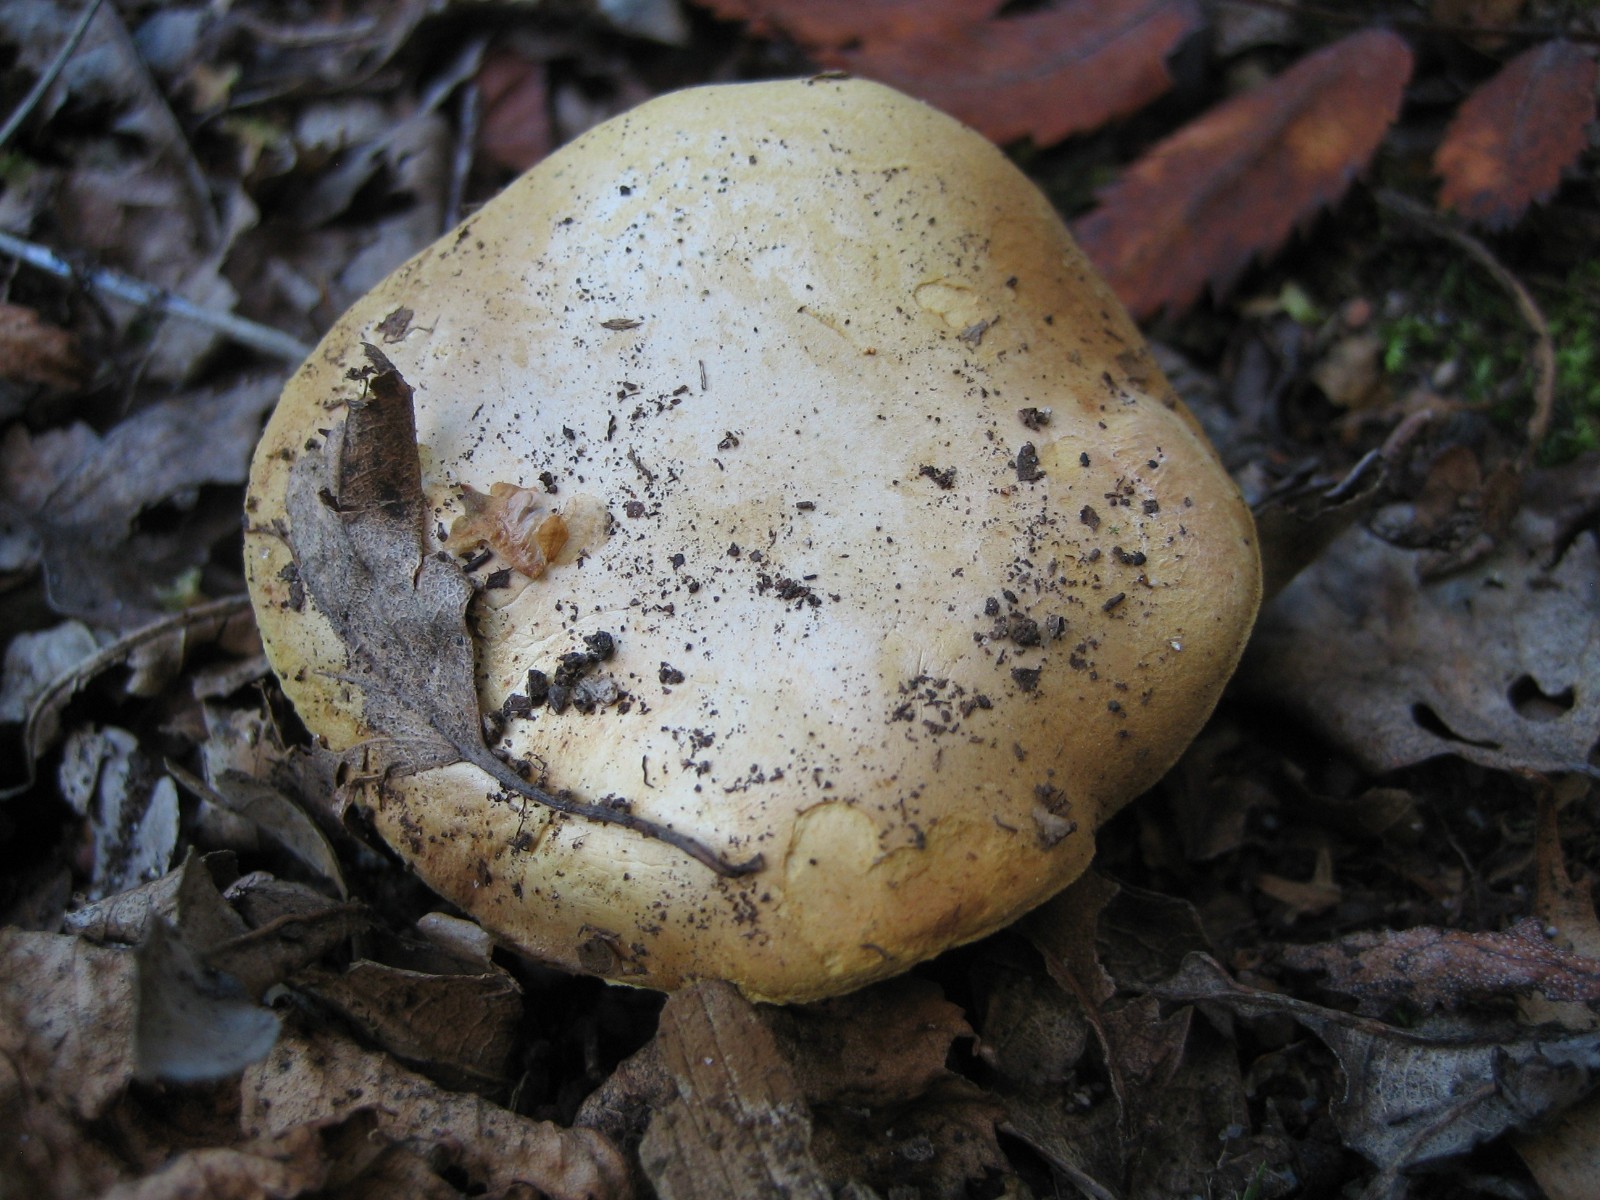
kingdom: Fungi
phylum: Basidiomycota
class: Agaricomycetes
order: Boletales
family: Boletaceae
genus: Chalciporus
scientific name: Chalciporus piperatus
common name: peberrørhat
